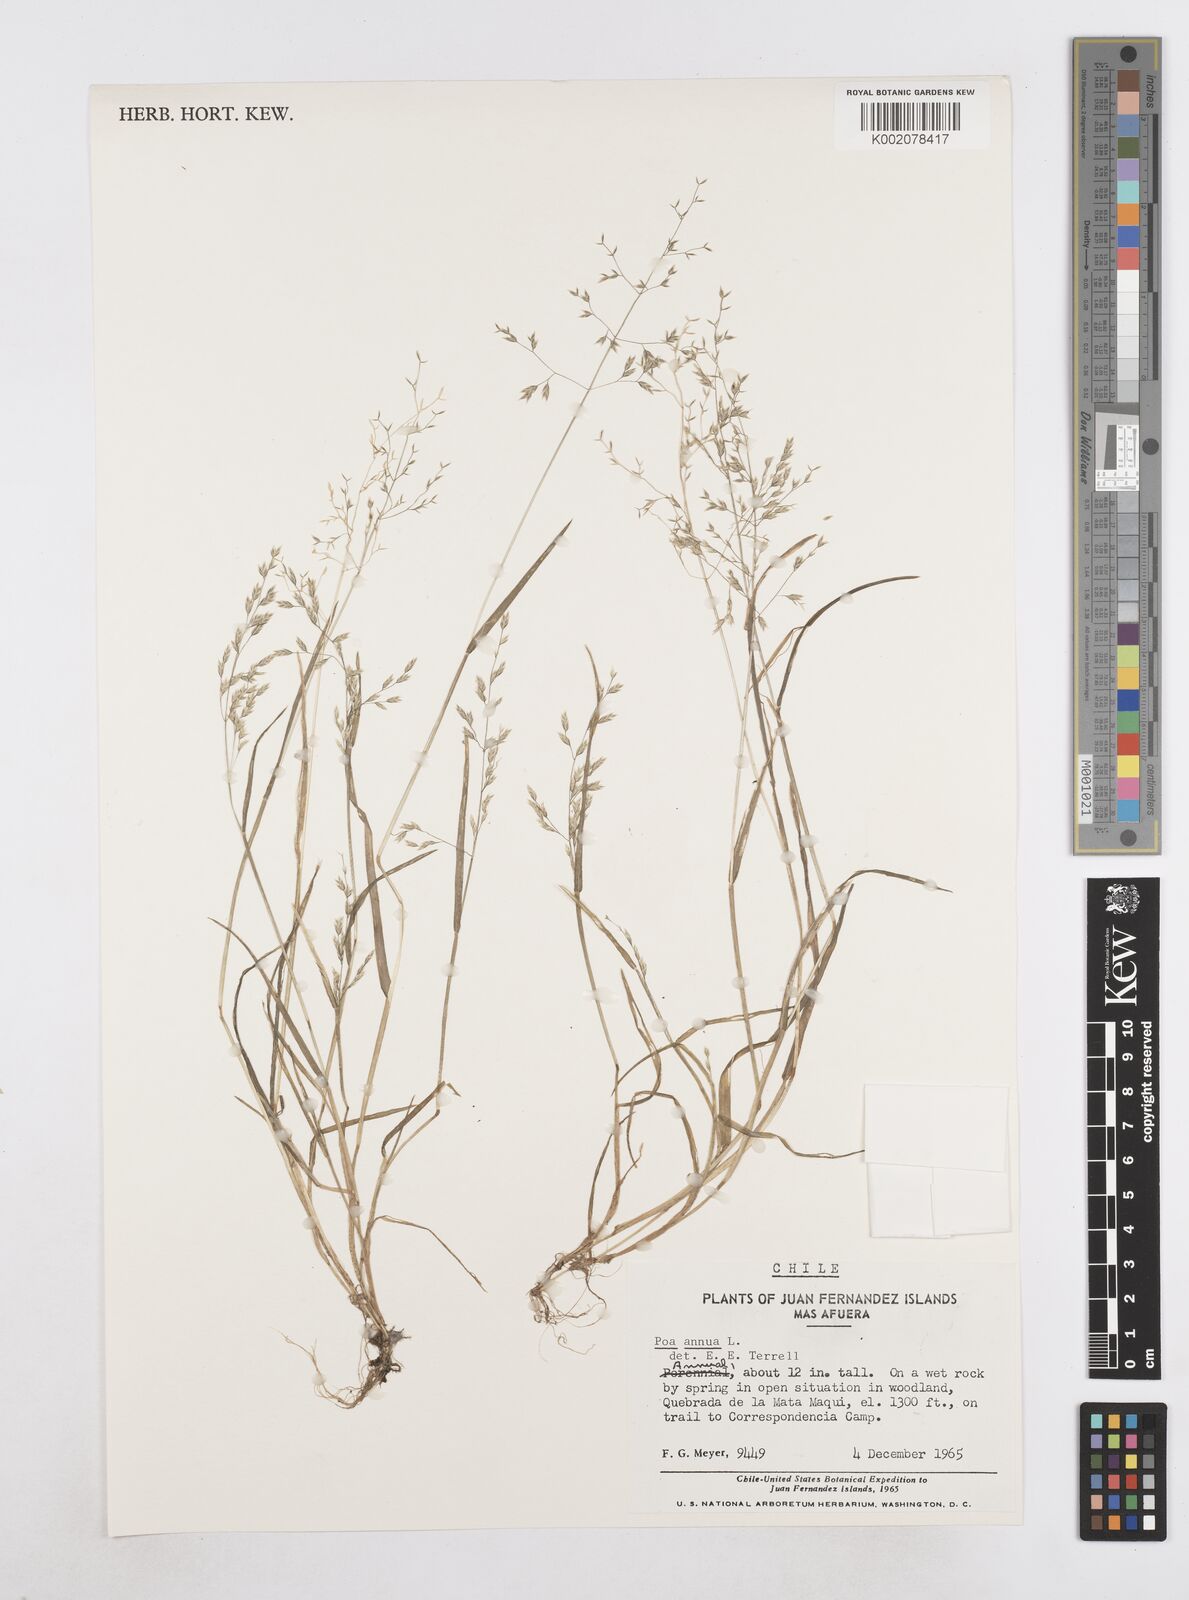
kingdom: Plantae
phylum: Tracheophyta
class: Liliopsida
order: Poales
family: Poaceae
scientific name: Poaceae
